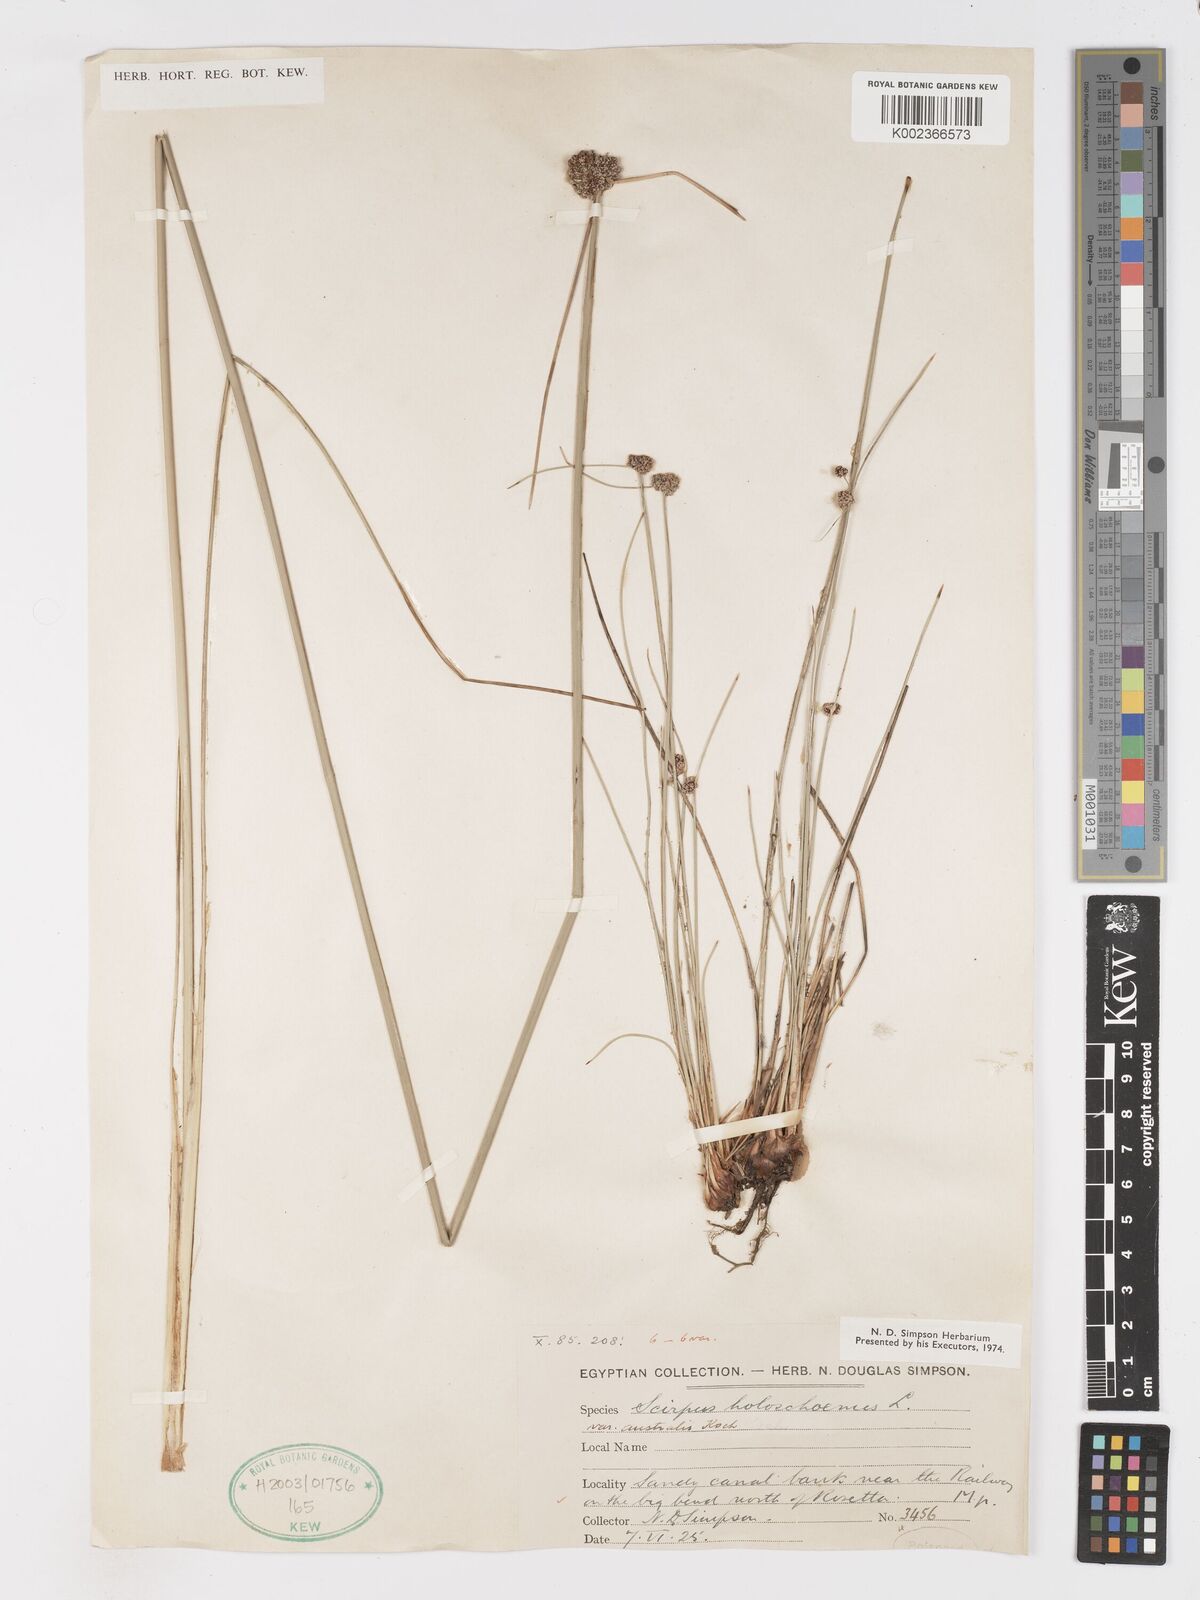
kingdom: Plantae
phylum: Tracheophyta
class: Liliopsida
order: Poales
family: Cyperaceae
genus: Scirpoides
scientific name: Scirpoides holoschoenus
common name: Round-headed club-rush
